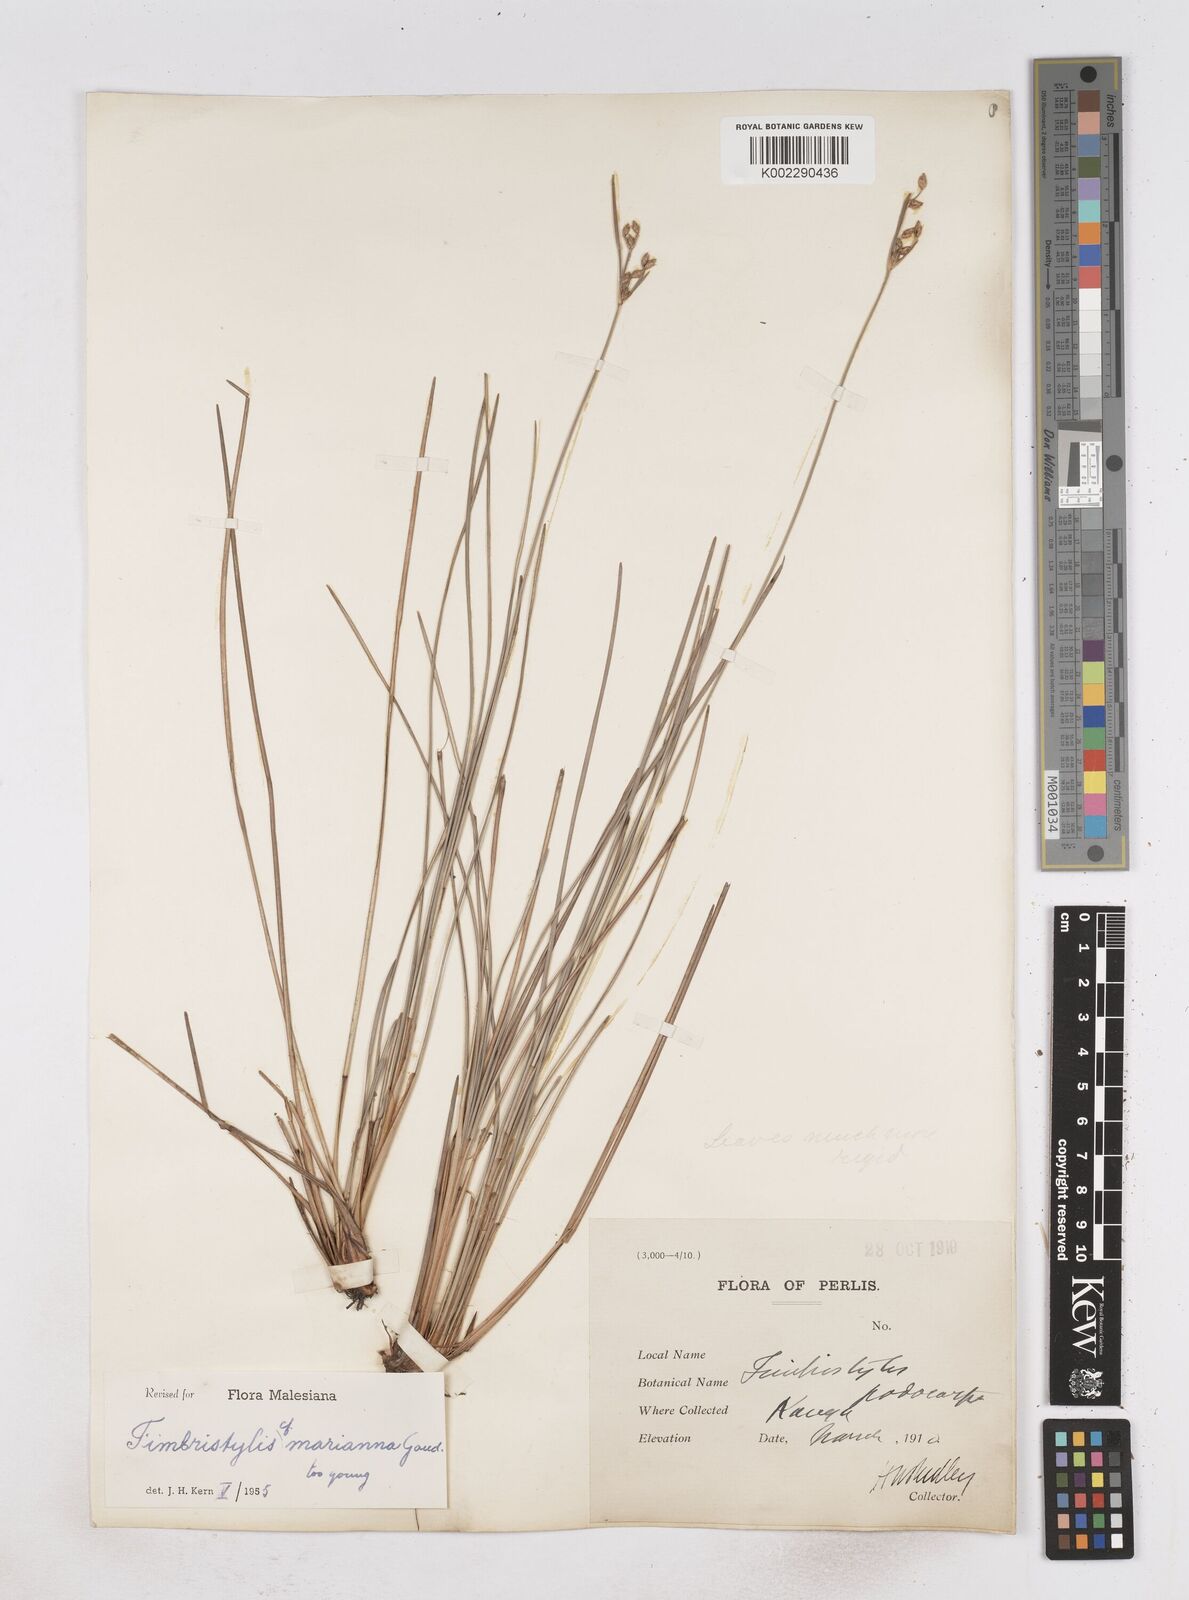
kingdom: Plantae
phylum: Tracheophyta
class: Liliopsida
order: Poales
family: Cyperaceae
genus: Fimbristylis
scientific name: Fimbristylis tristachya
